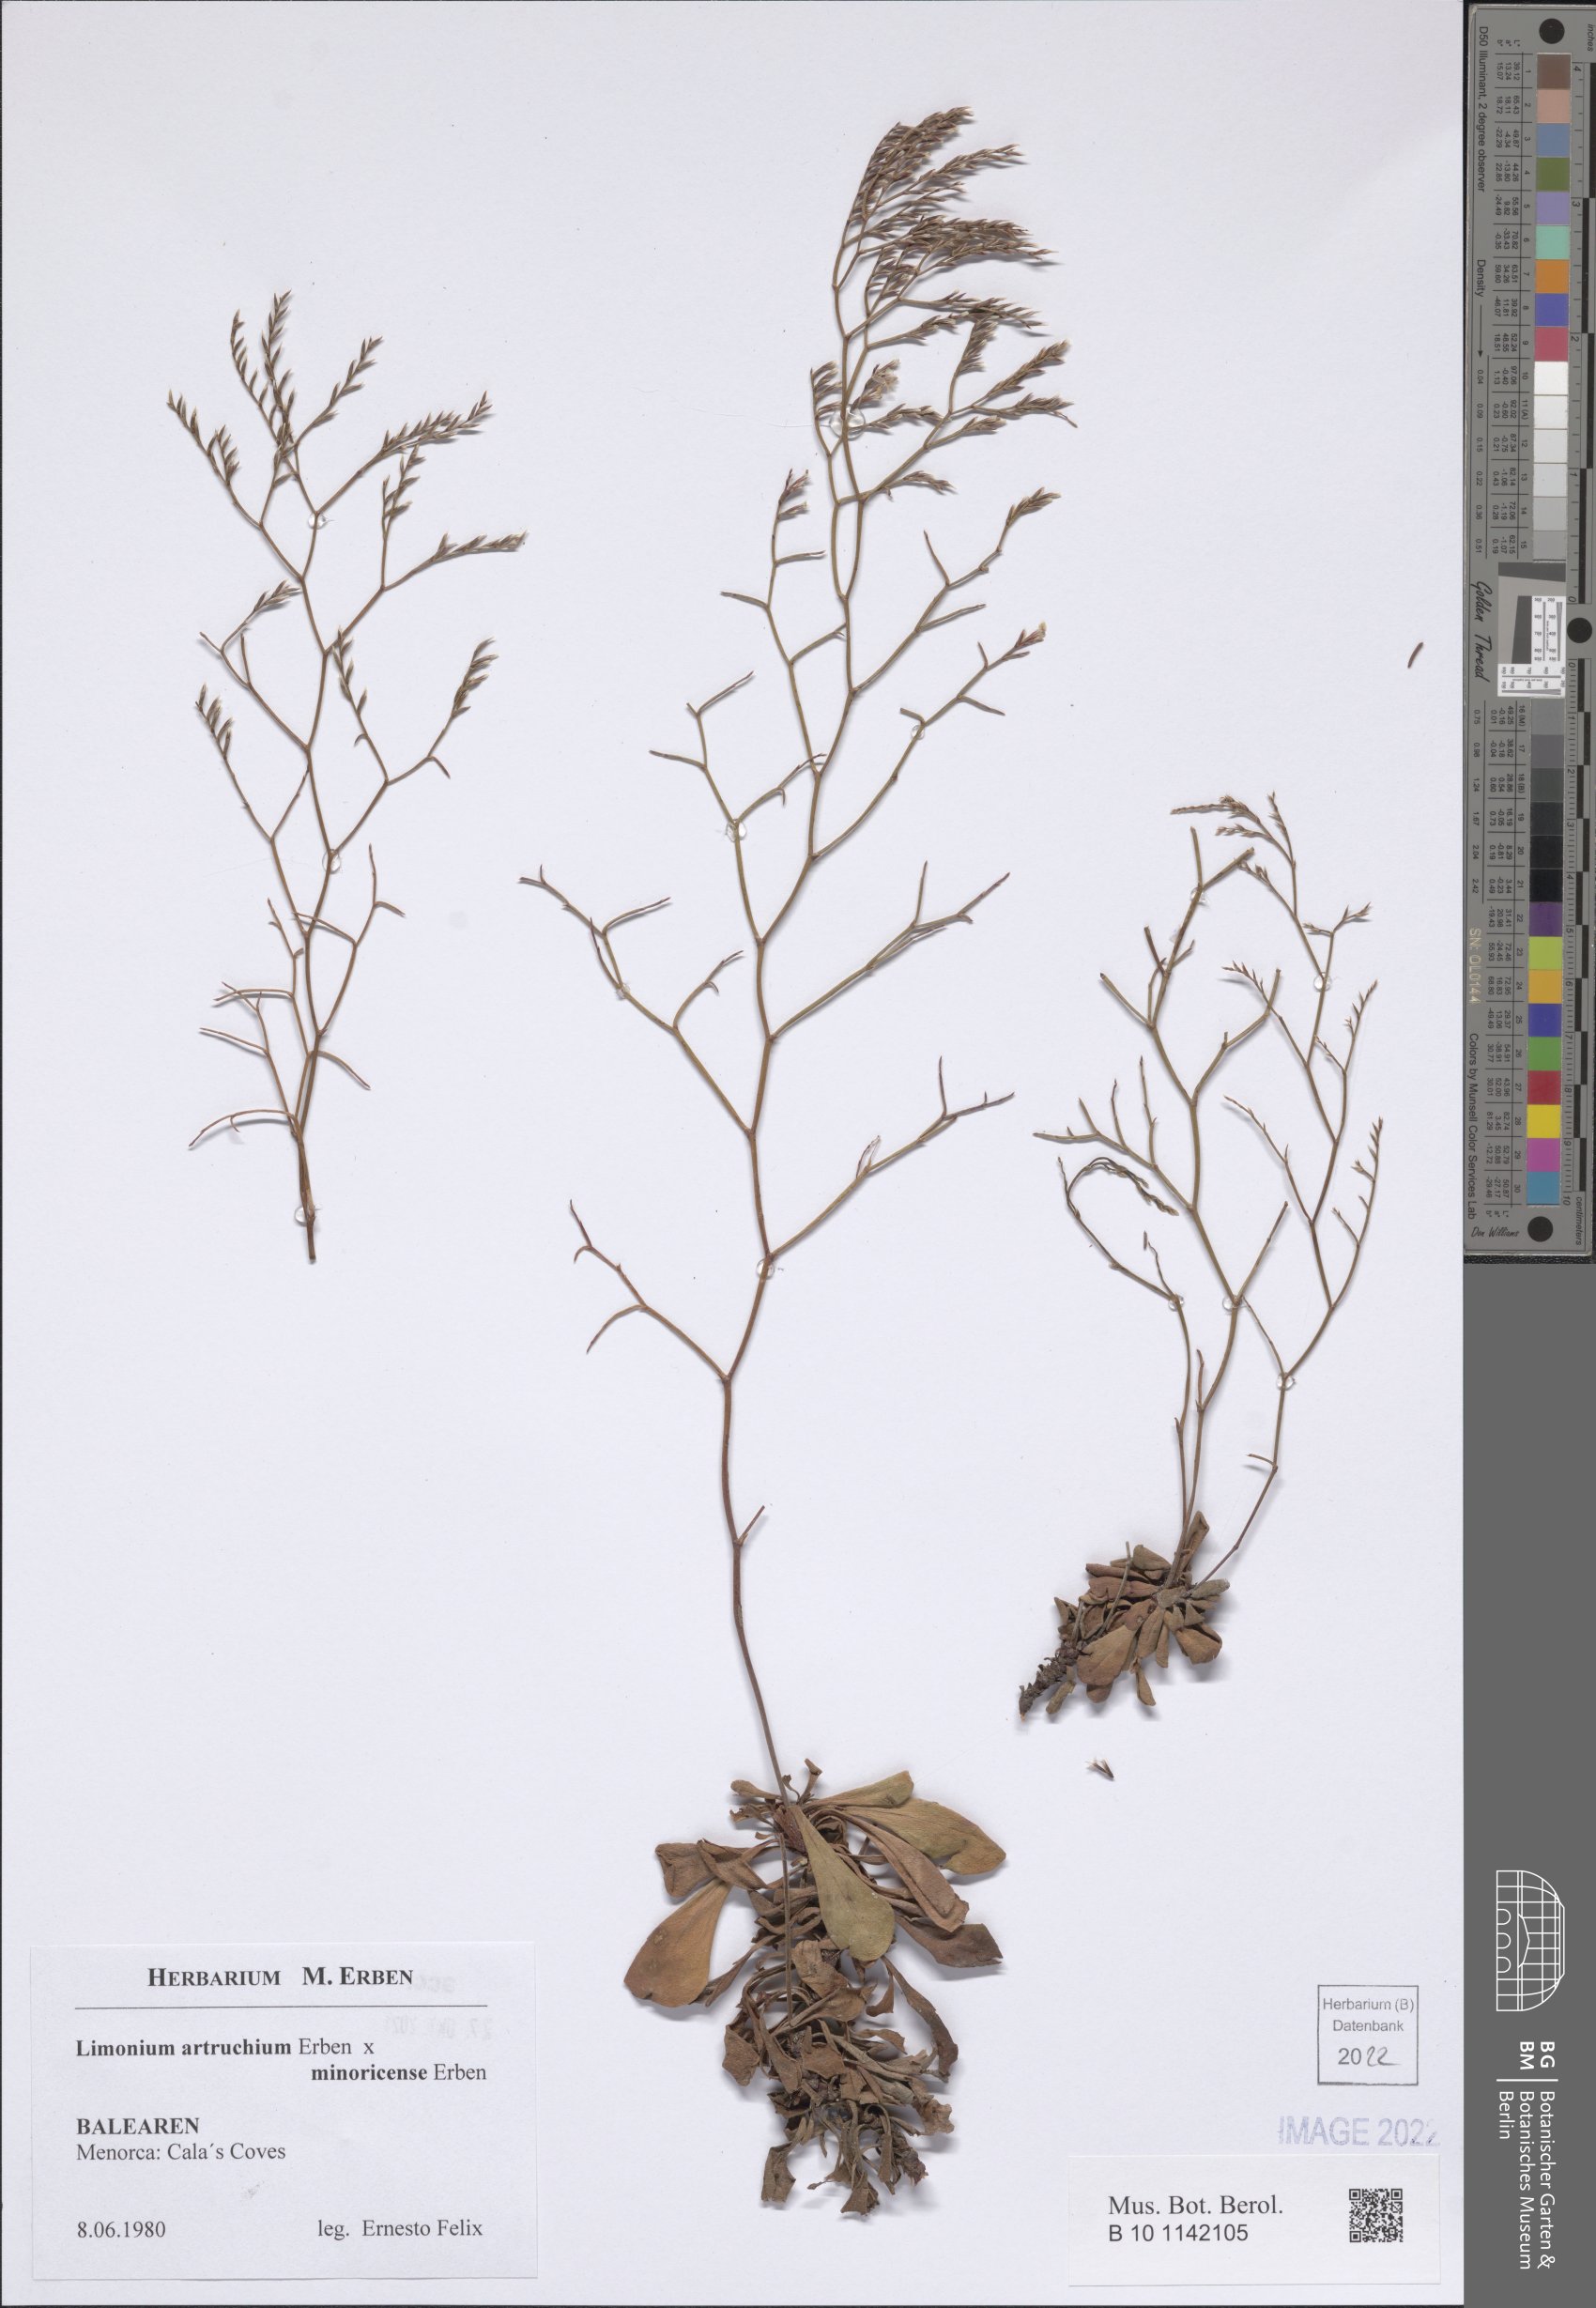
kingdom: Plantae
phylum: Tracheophyta
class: Magnoliopsida
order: Caryophyllales
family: Plumbaginaceae
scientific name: Plumbaginaceae
